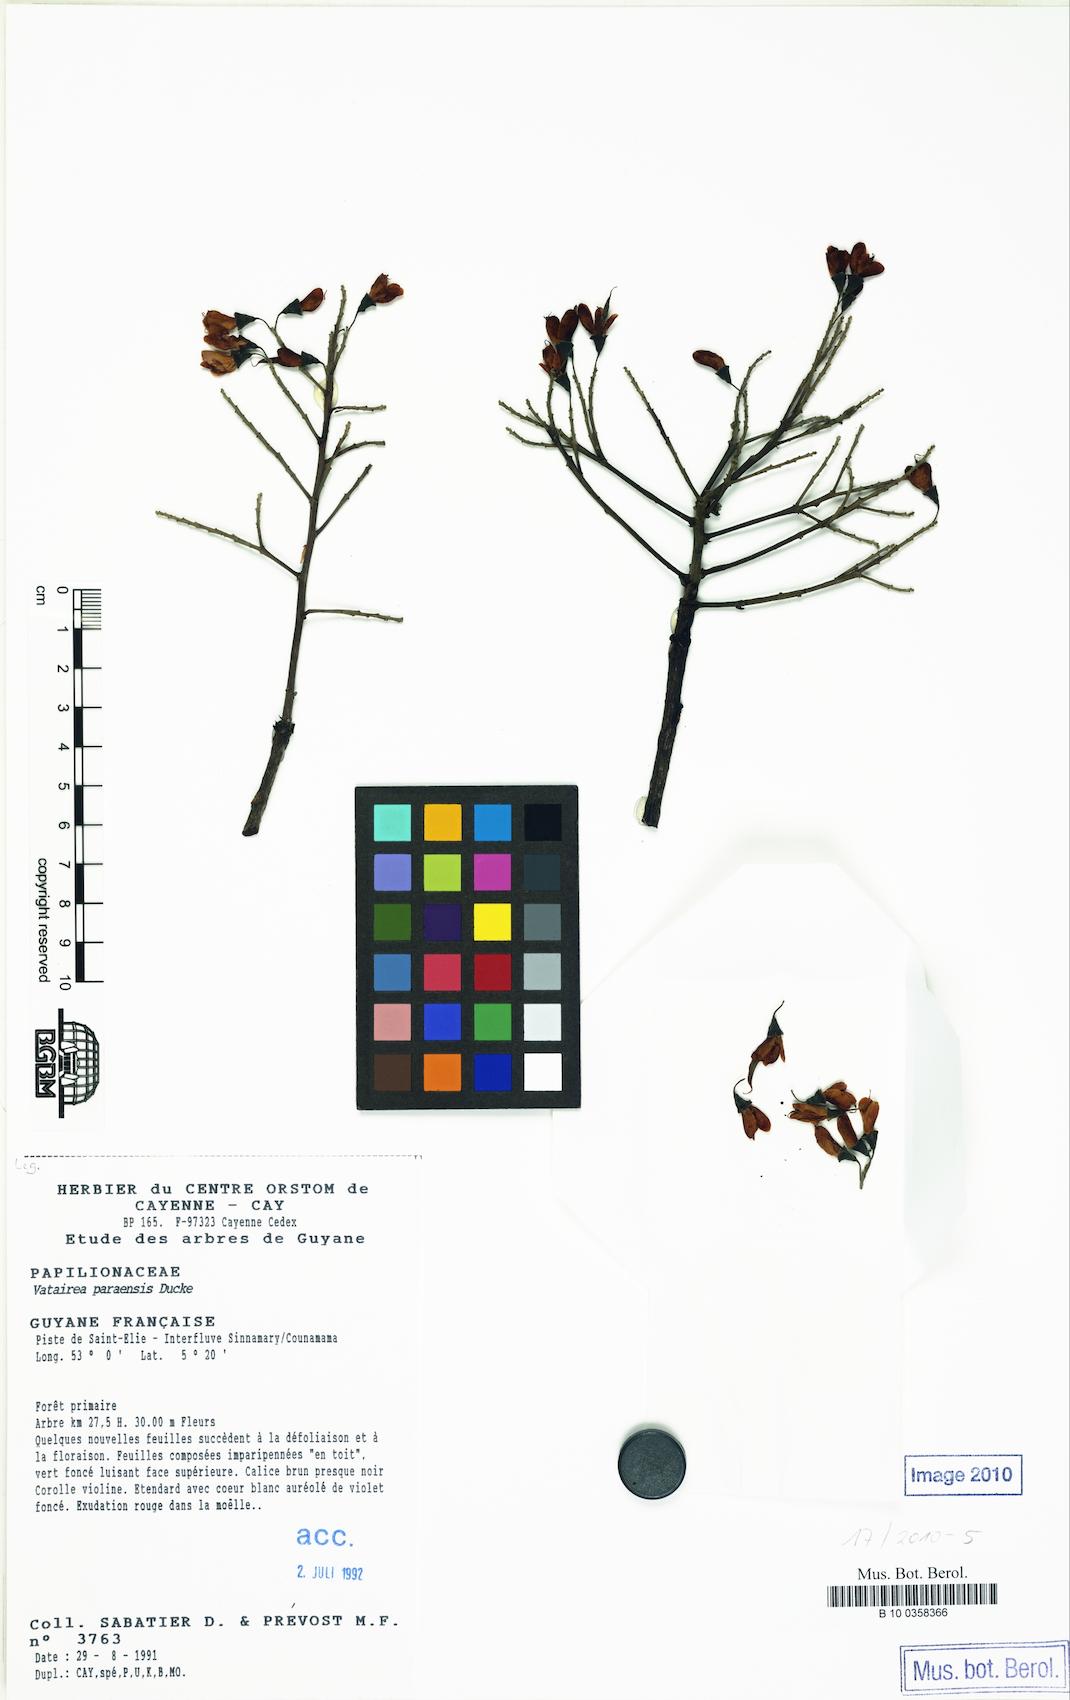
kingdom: Plantae
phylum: Tracheophyta
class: Magnoliopsida
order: Fabales
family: Fabaceae
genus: Vatairea
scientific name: Vatairea paraensis
